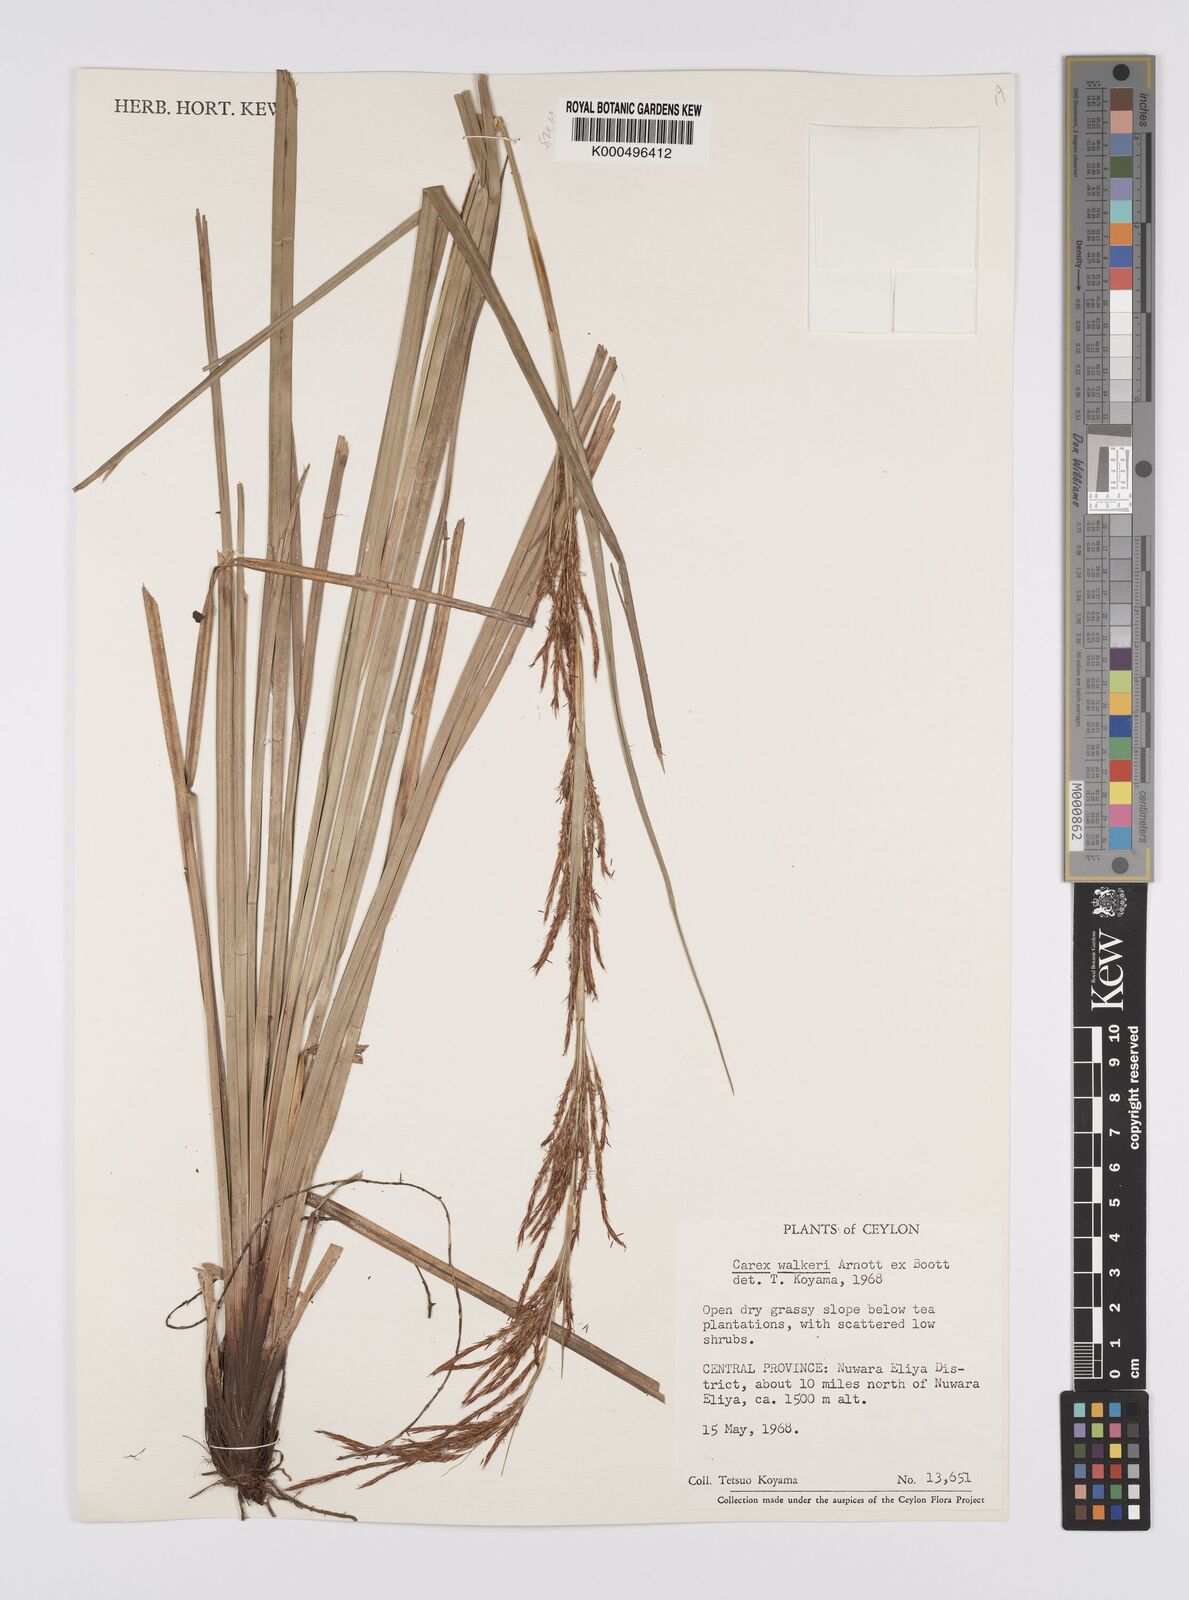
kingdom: Plantae
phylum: Tracheophyta
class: Liliopsida
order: Poales
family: Cyperaceae
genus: Carex
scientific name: Carex walkeri
